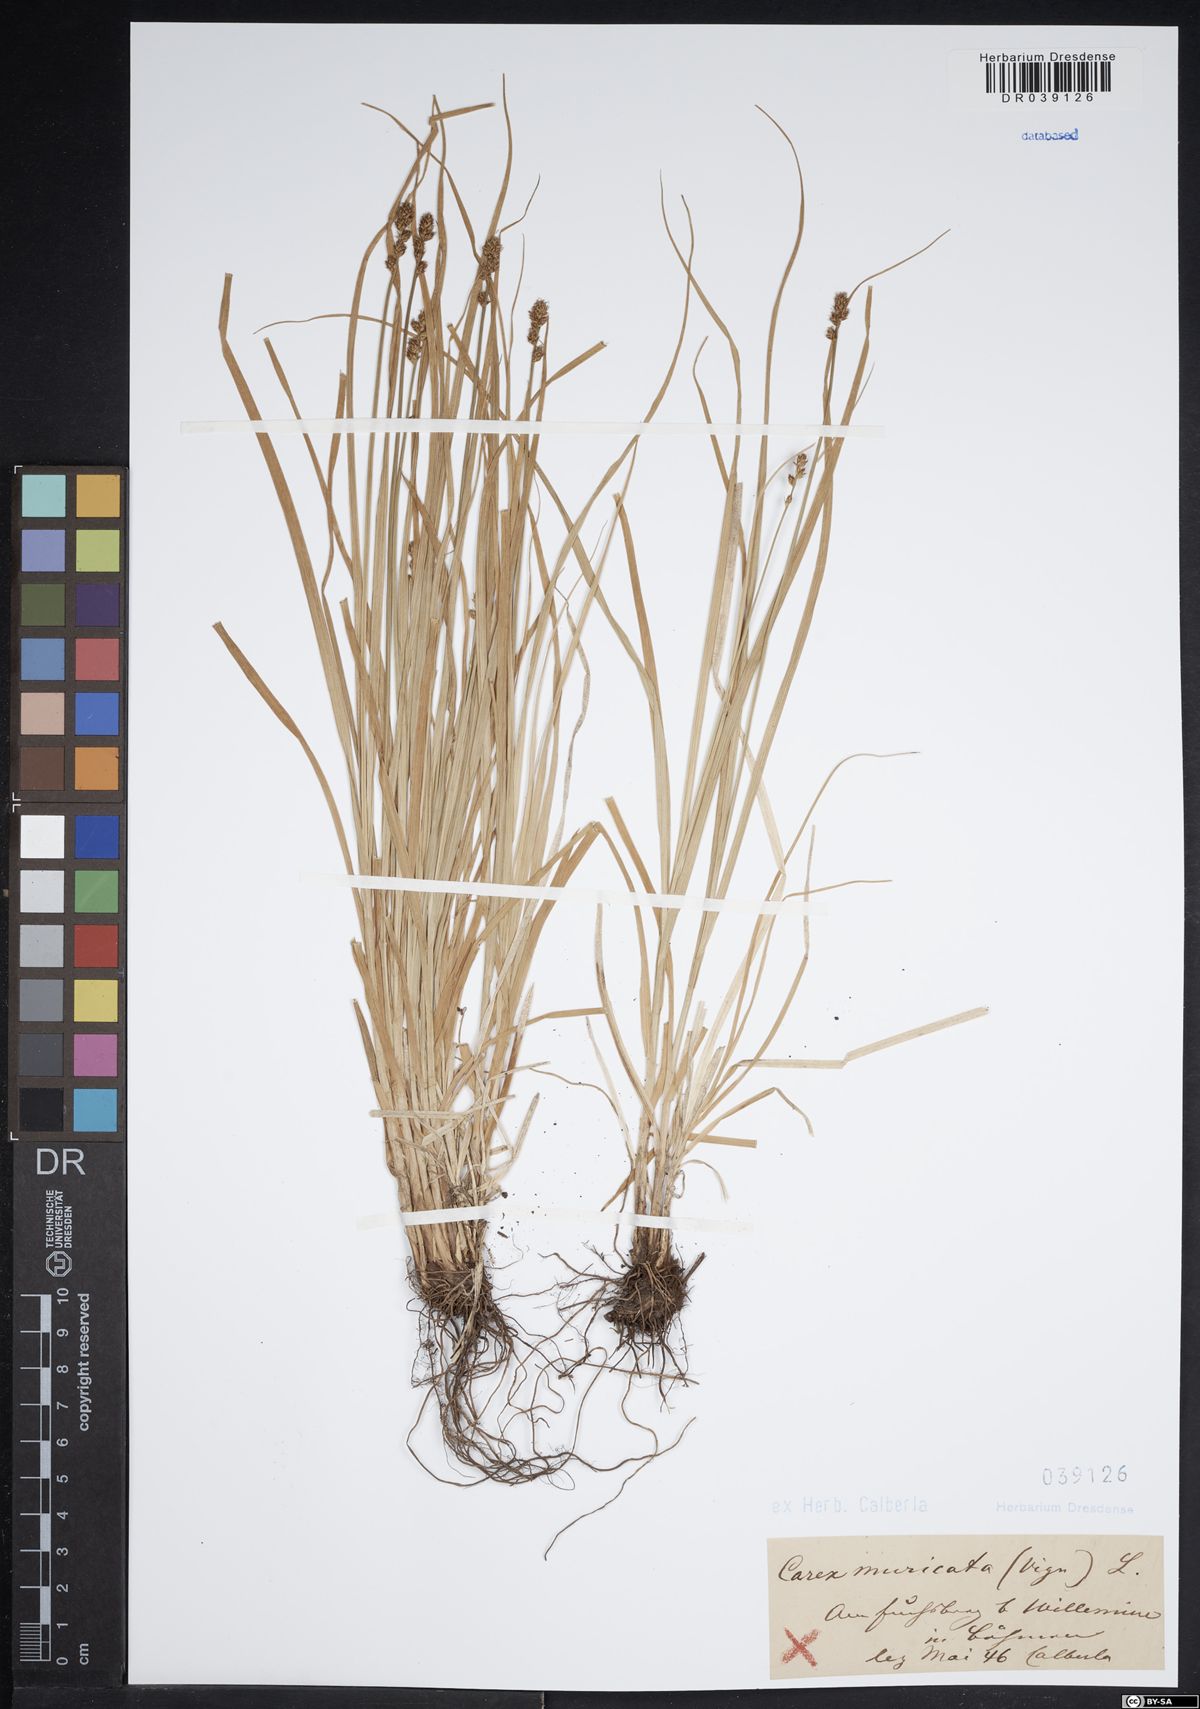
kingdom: Plantae
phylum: Tracheophyta
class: Liliopsida
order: Poales
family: Cyperaceae
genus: Carex
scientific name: Carex muricata
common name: Rough sedge
